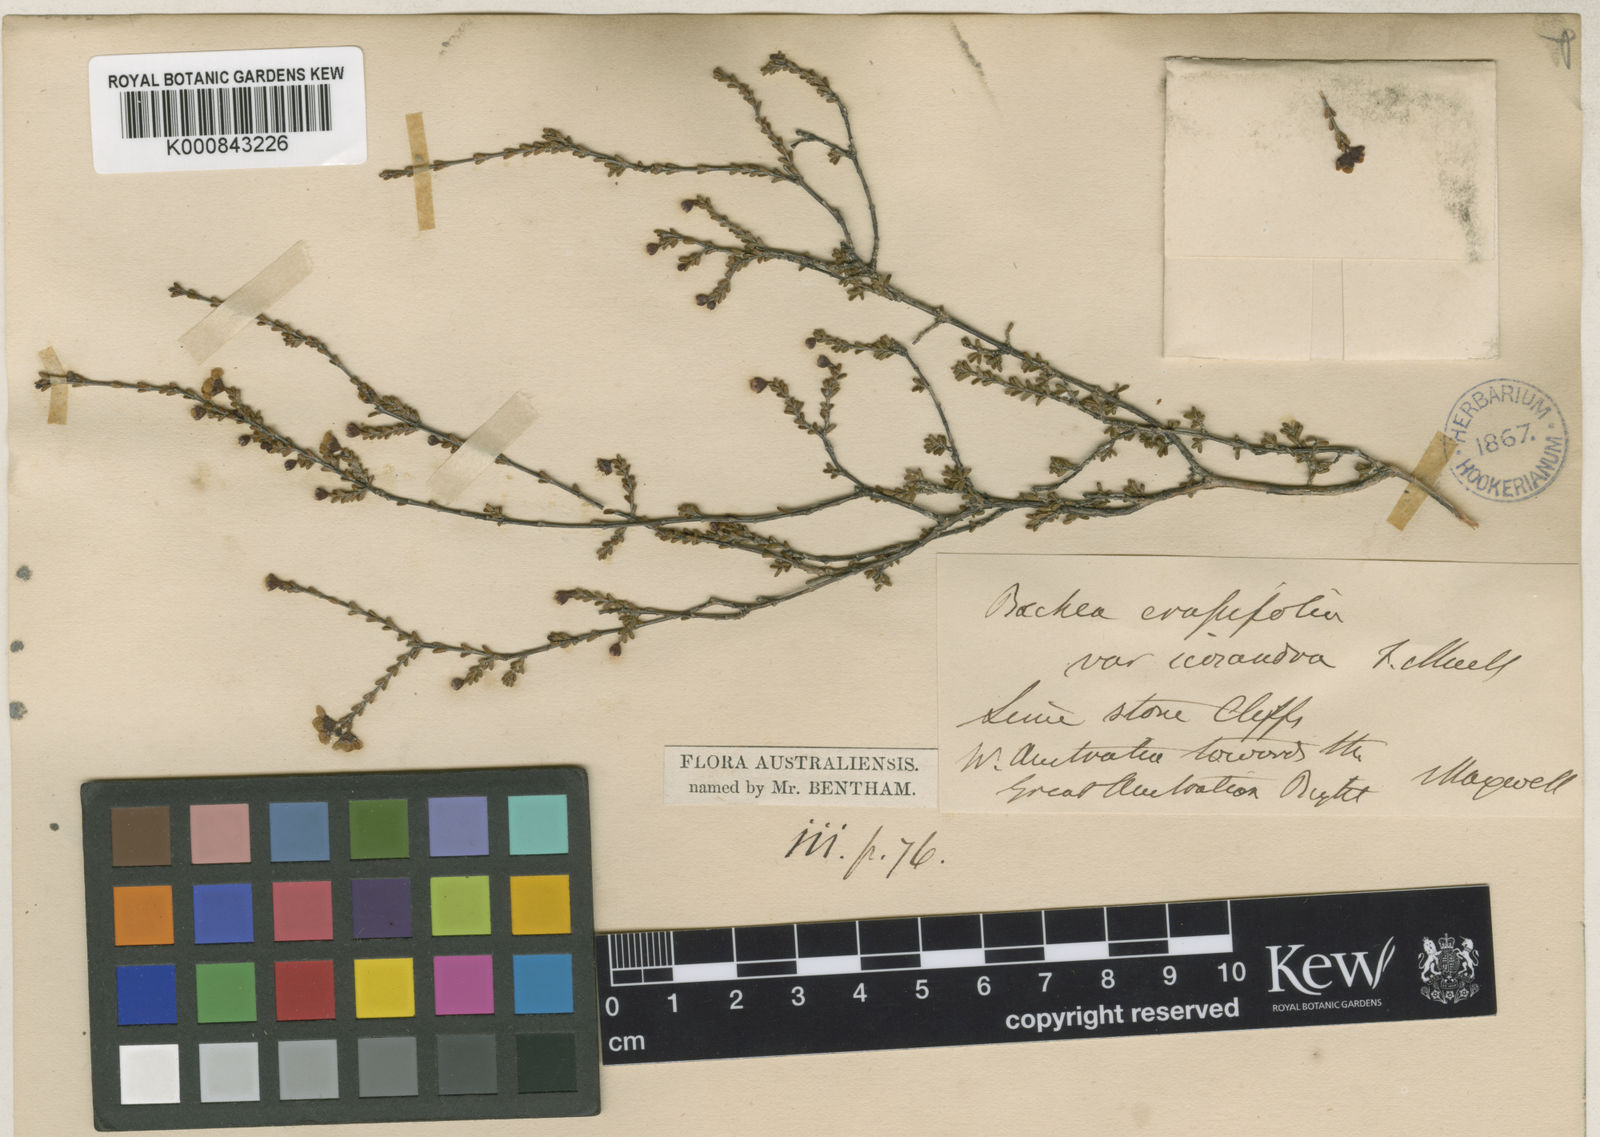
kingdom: Plantae
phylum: Tracheophyta
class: Magnoliopsida
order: Myrtales
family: Myrtaceae
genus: Rinzia
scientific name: Rinzia icosandra
